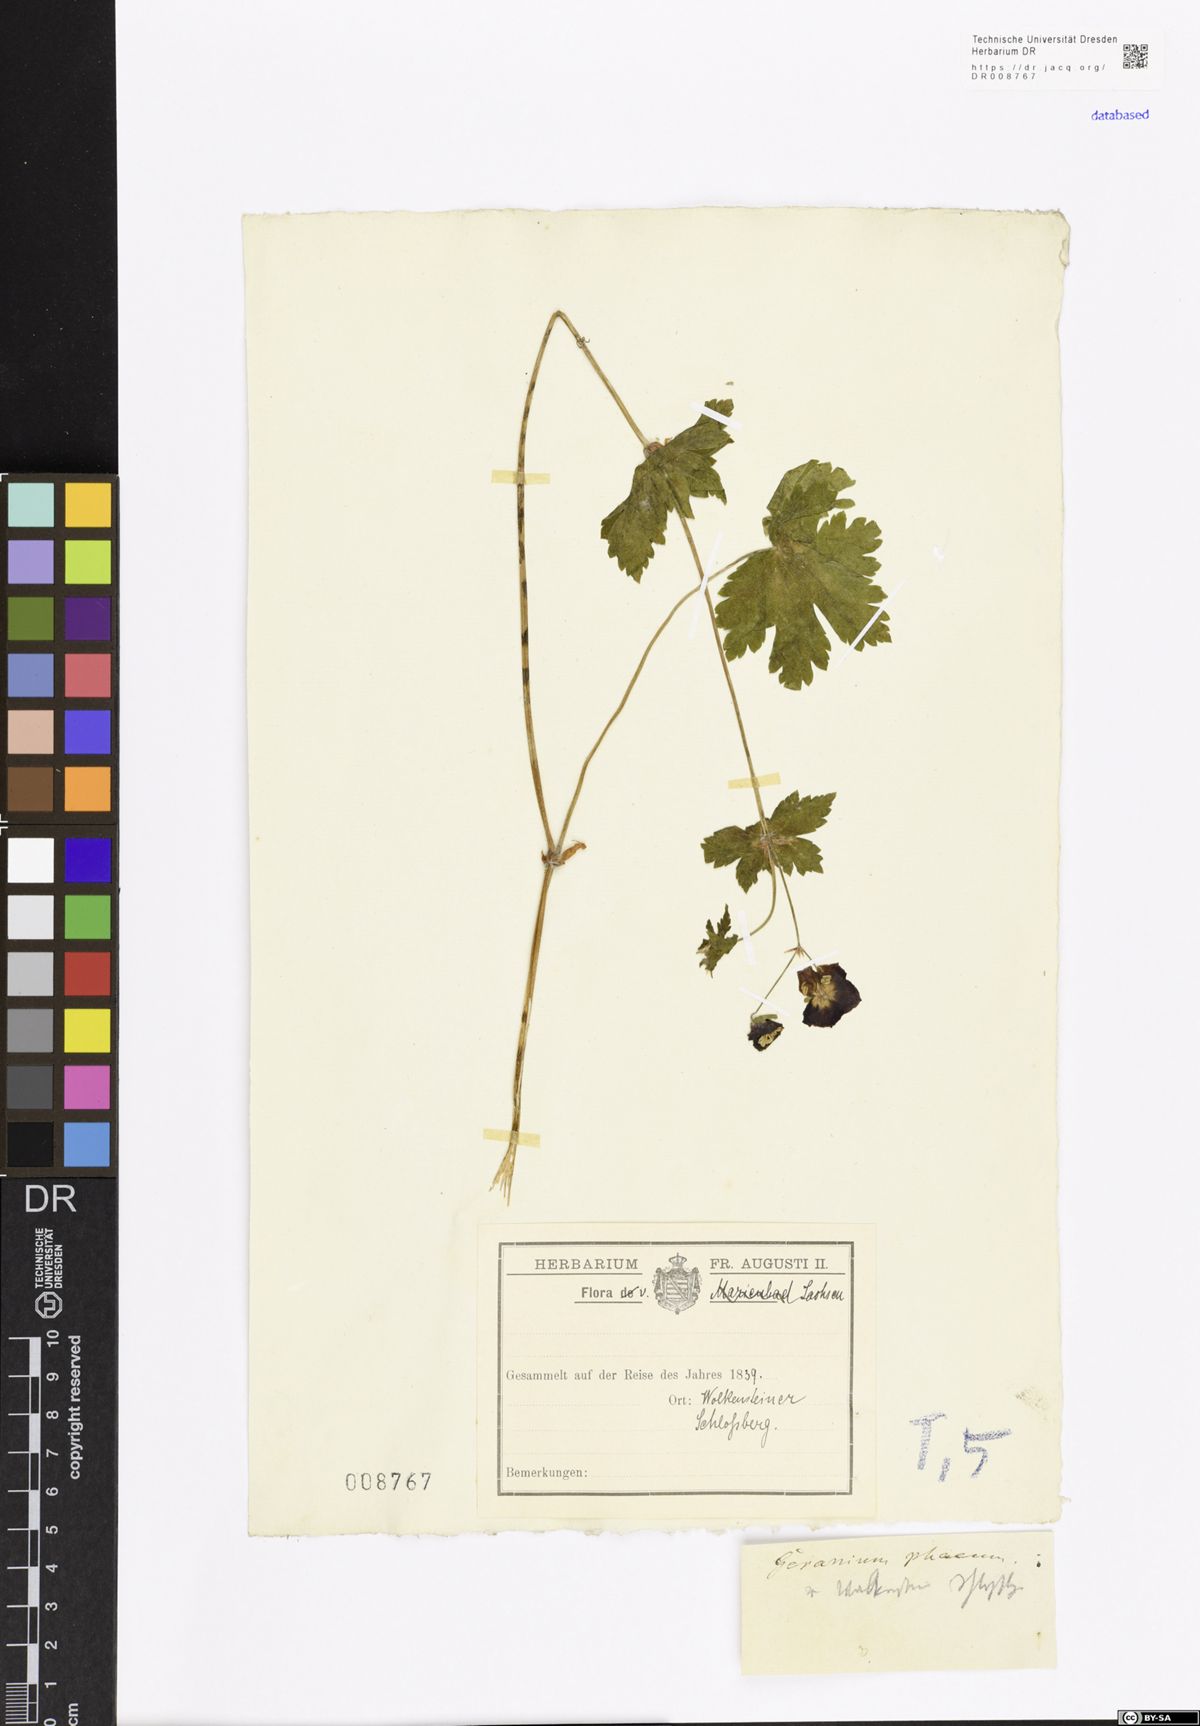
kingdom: Plantae
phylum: Tracheophyta
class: Magnoliopsida
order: Geraniales
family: Geraniaceae
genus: Geranium
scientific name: Geranium phaeum
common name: Dusky crane's-bill
